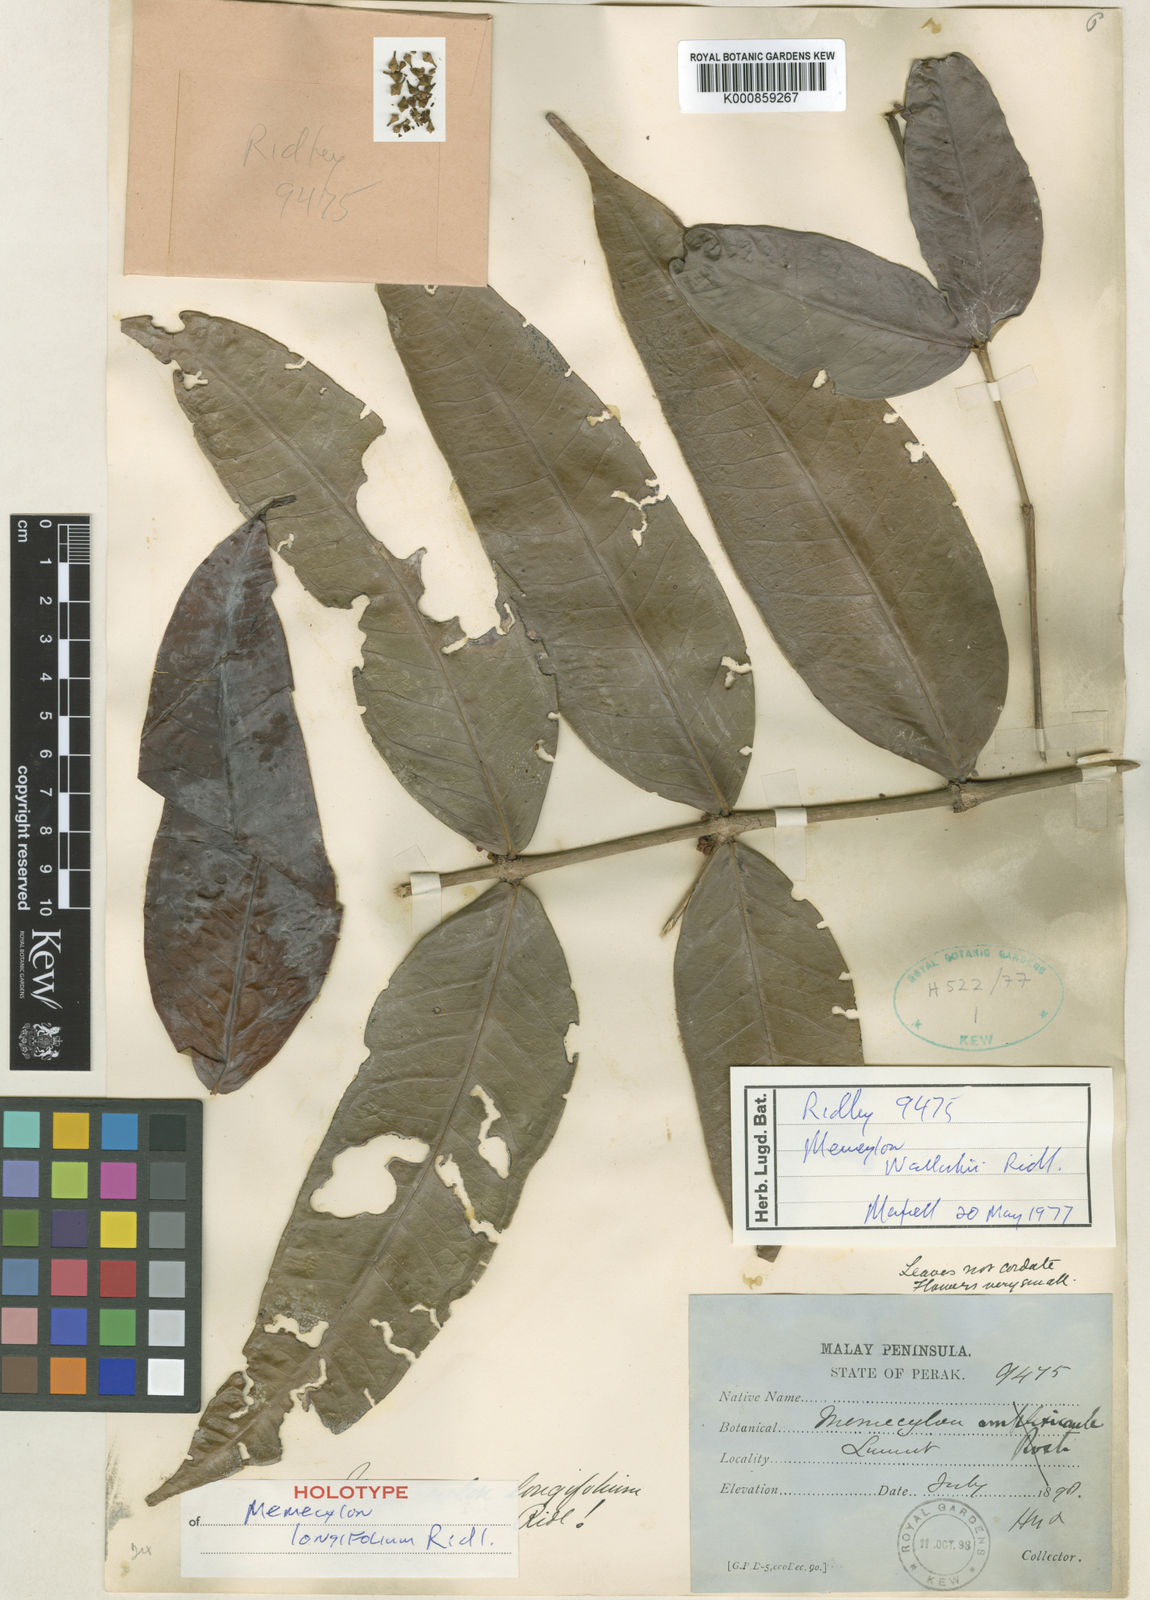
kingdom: Plantae
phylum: Tracheophyta
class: Magnoliopsida
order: Myrtales
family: Melastomataceae
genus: Memecylon
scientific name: Memecylon wallichii
